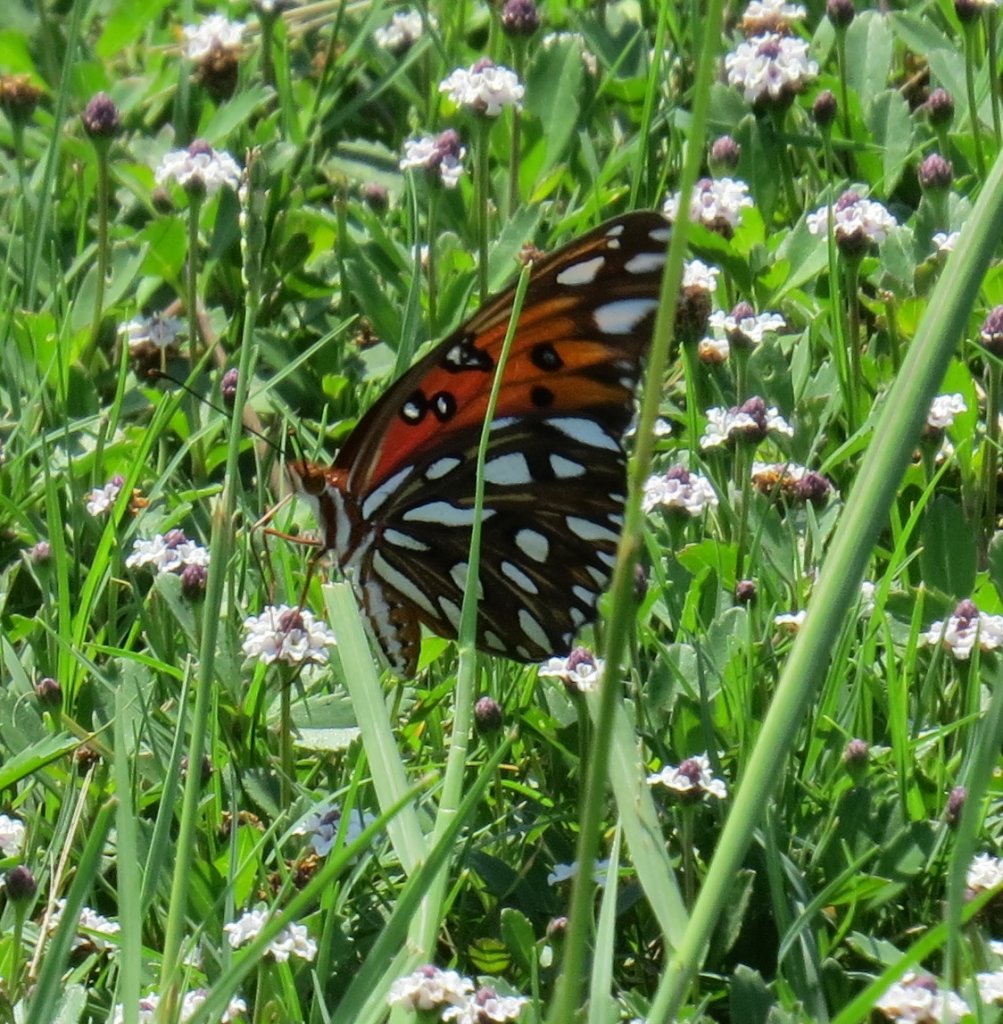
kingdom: Animalia
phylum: Arthropoda
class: Insecta
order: Lepidoptera
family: Nymphalidae
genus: Dione
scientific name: Dione vanillae
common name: Gulf Fritillary
